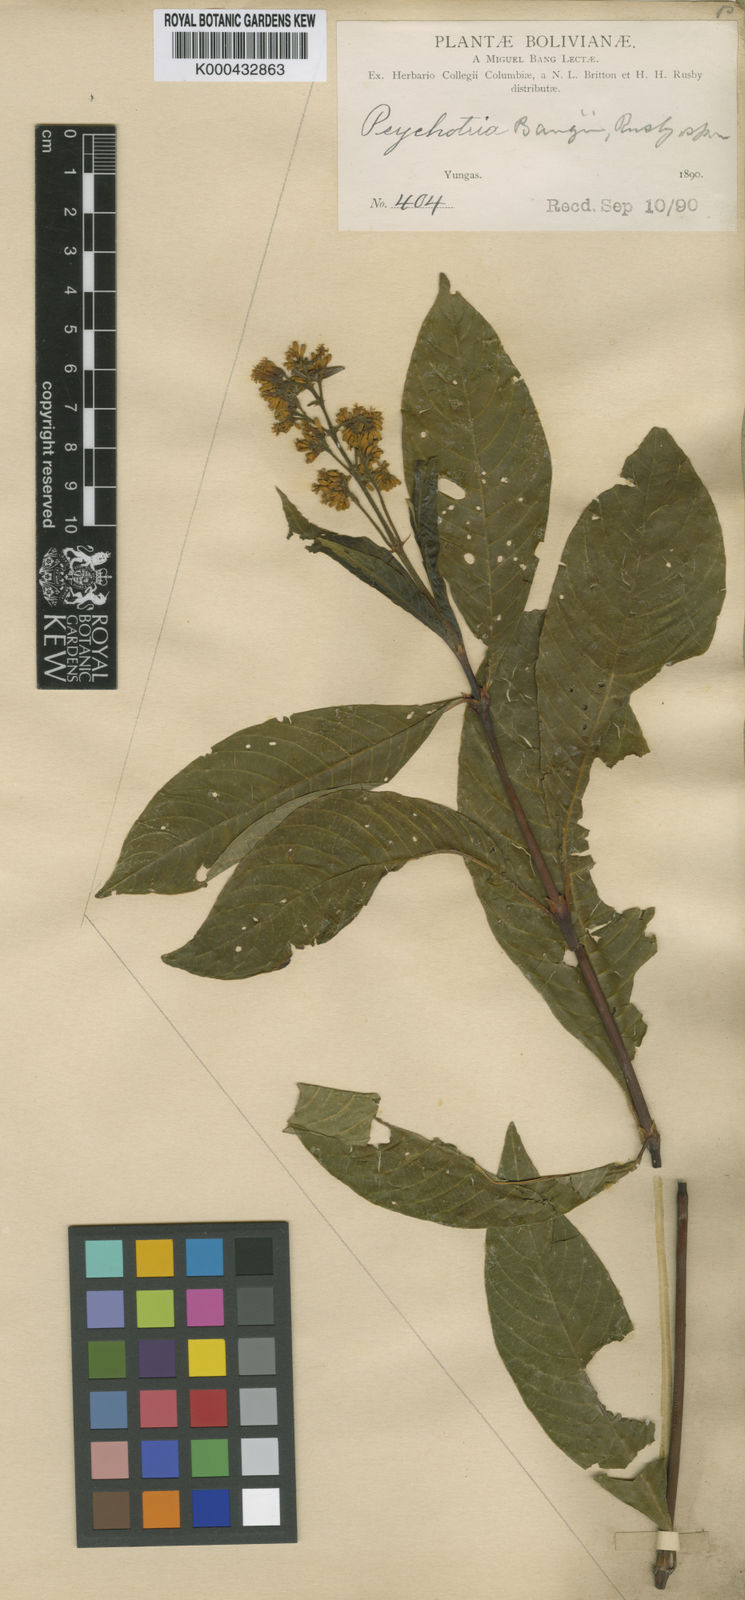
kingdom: Plantae
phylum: Tracheophyta
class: Magnoliopsida
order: Gentianales
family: Rubiaceae
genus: Palicourea
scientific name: Palicourea bangii
